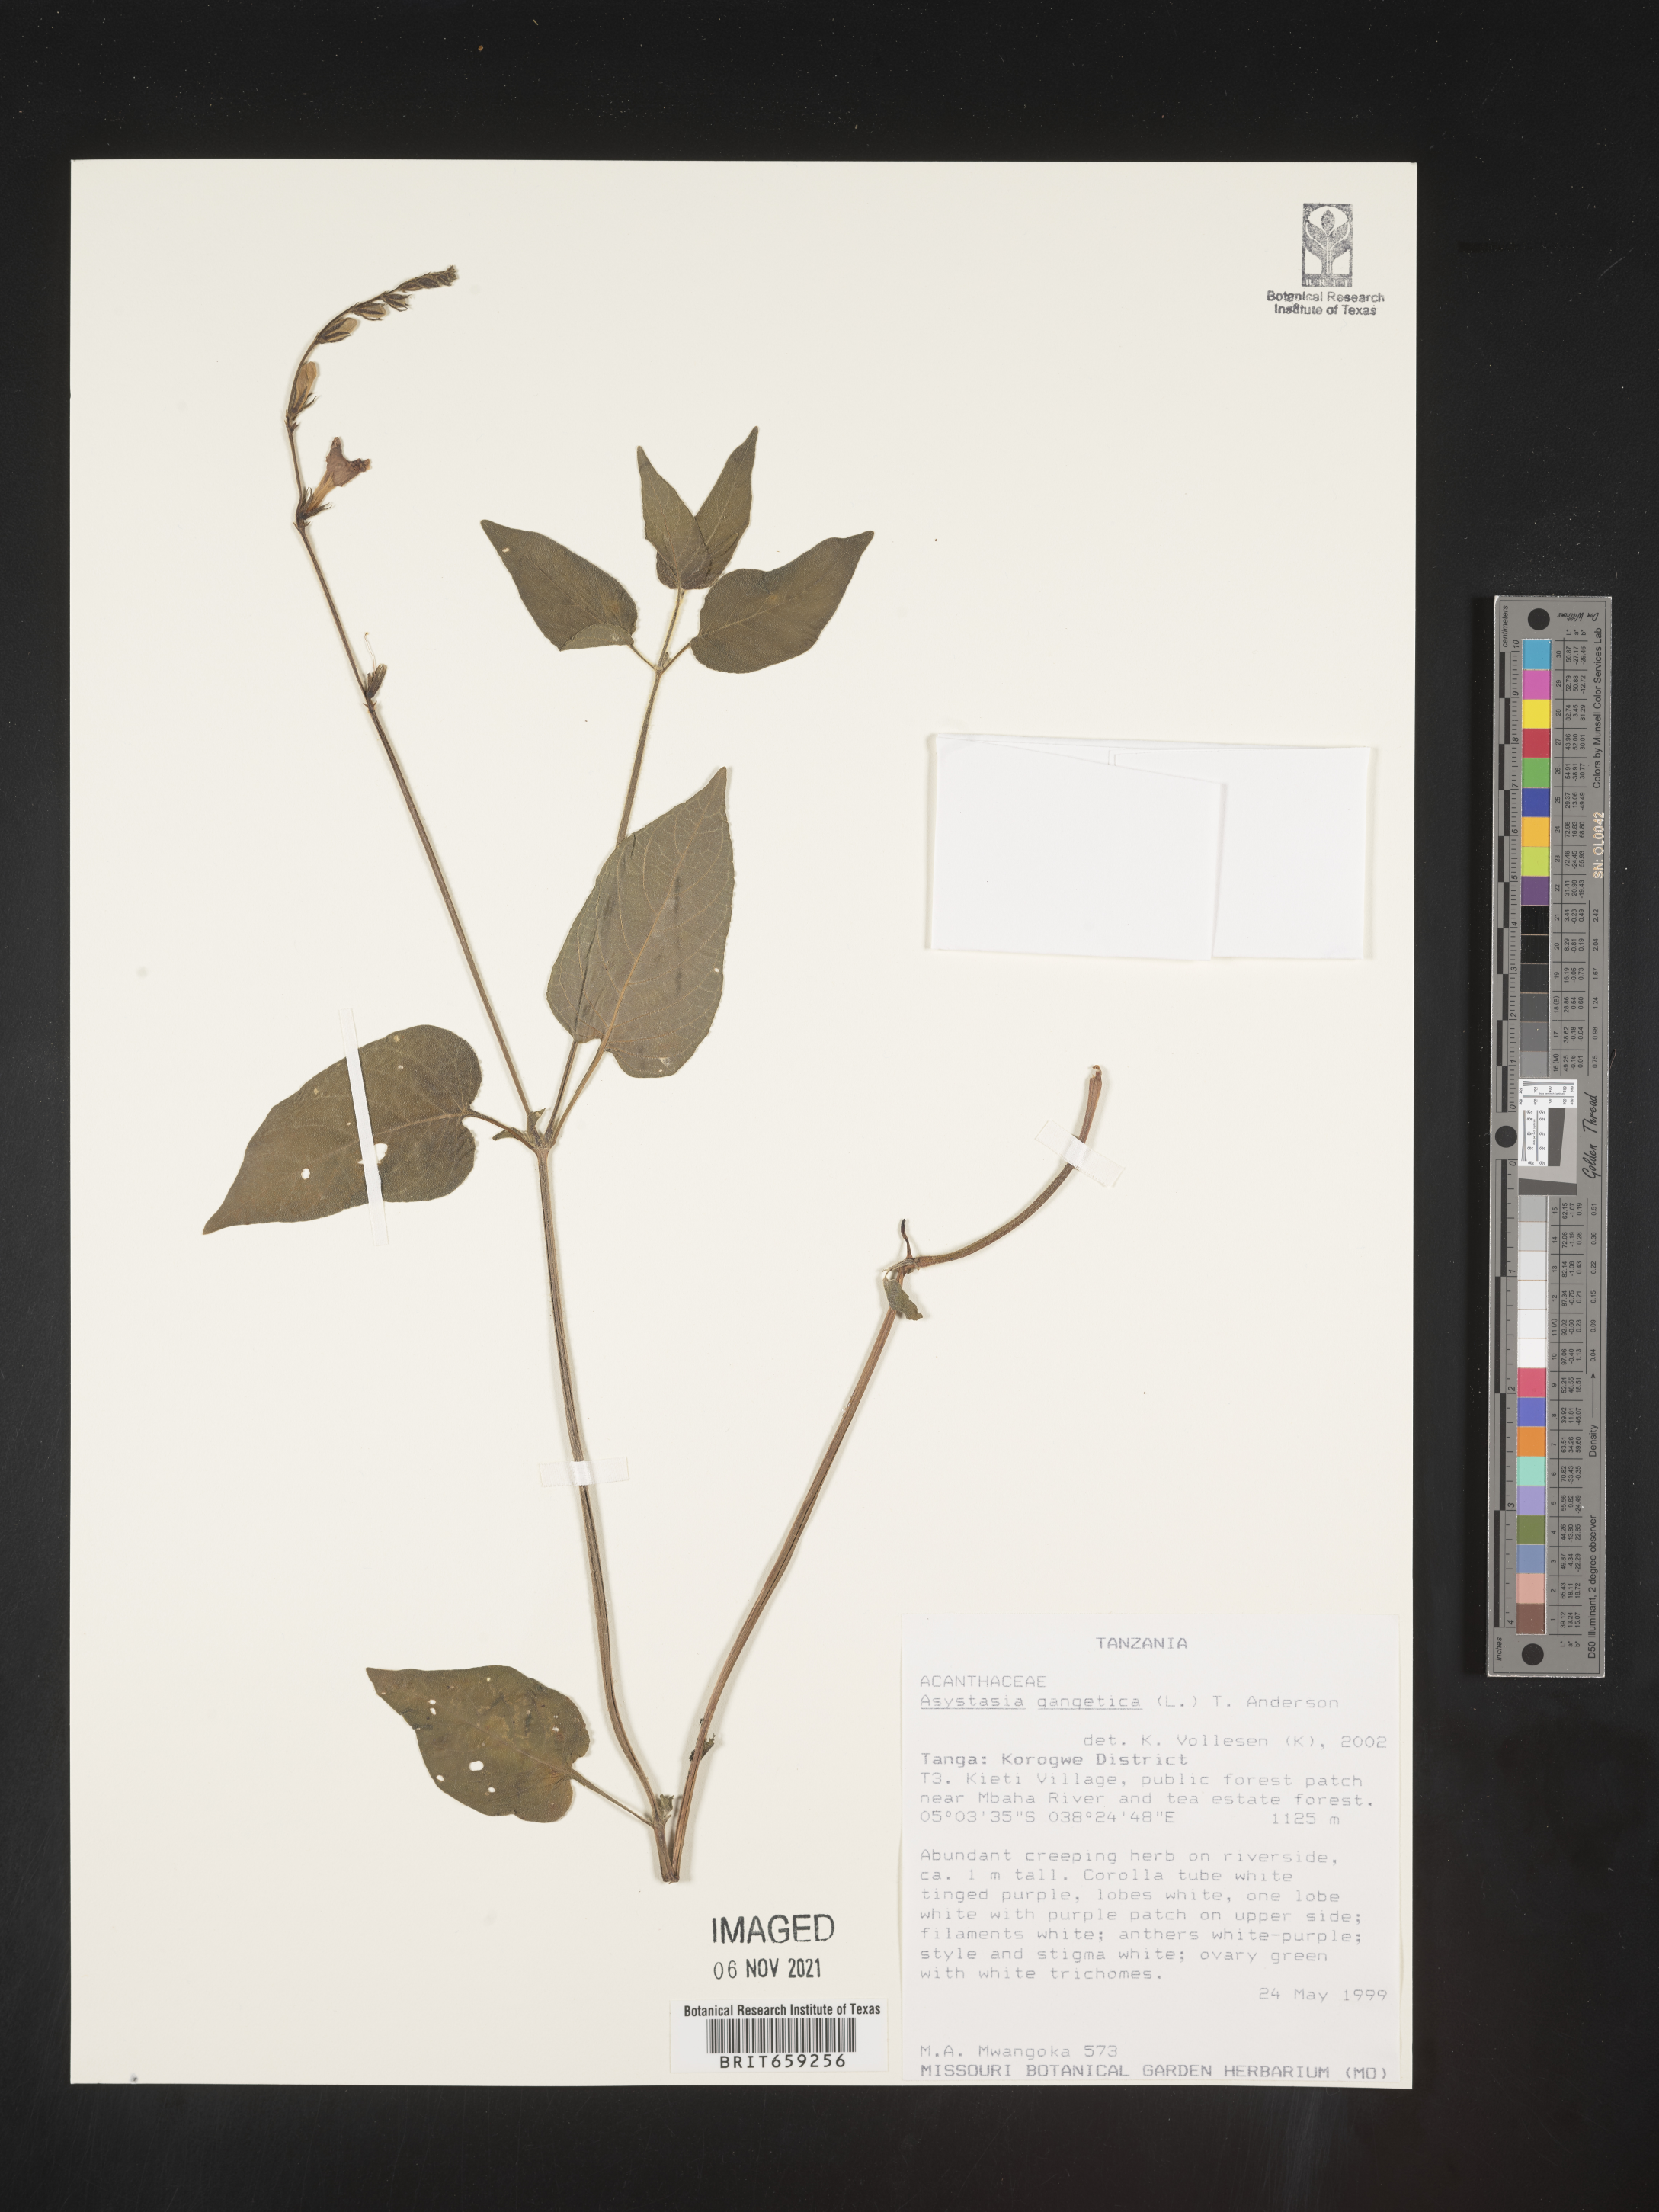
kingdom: Plantae
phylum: Tracheophyta
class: Magnoliopsida
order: Lamiales
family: Acanthaceae
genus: Asystasia
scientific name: Asystasia gangetica
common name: Chinese violet
